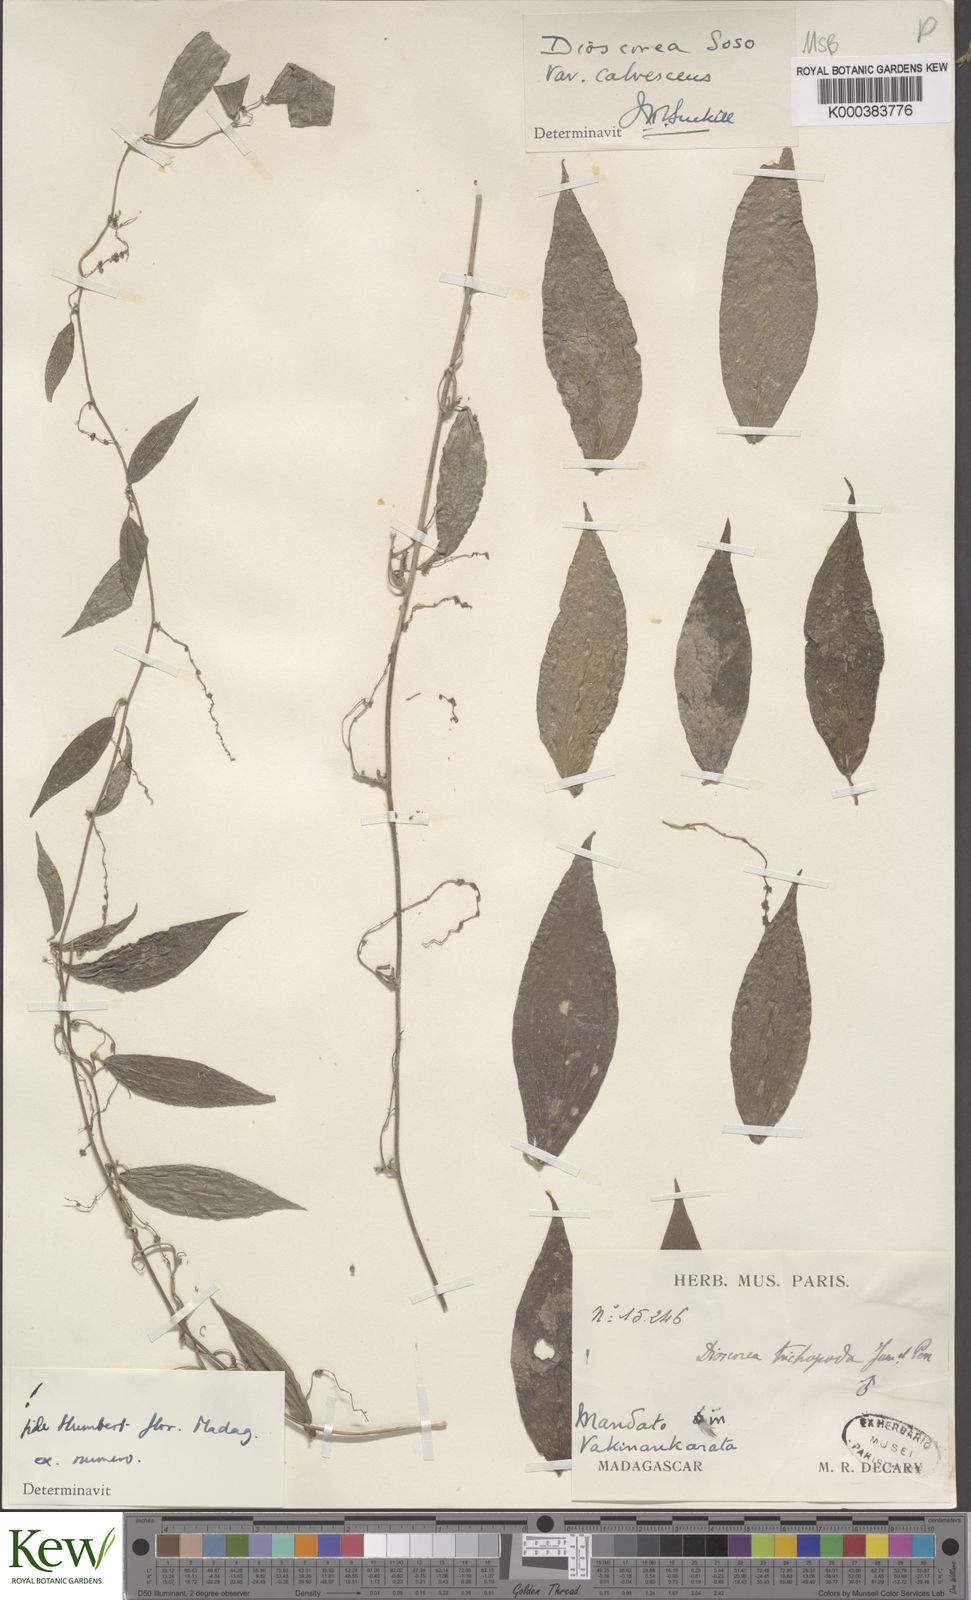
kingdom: Plantae
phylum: Tracheophyta
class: Liliopsida
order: Dioscoreales
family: Dioscoreaceae
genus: Dioscorea
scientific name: Dioscorea
